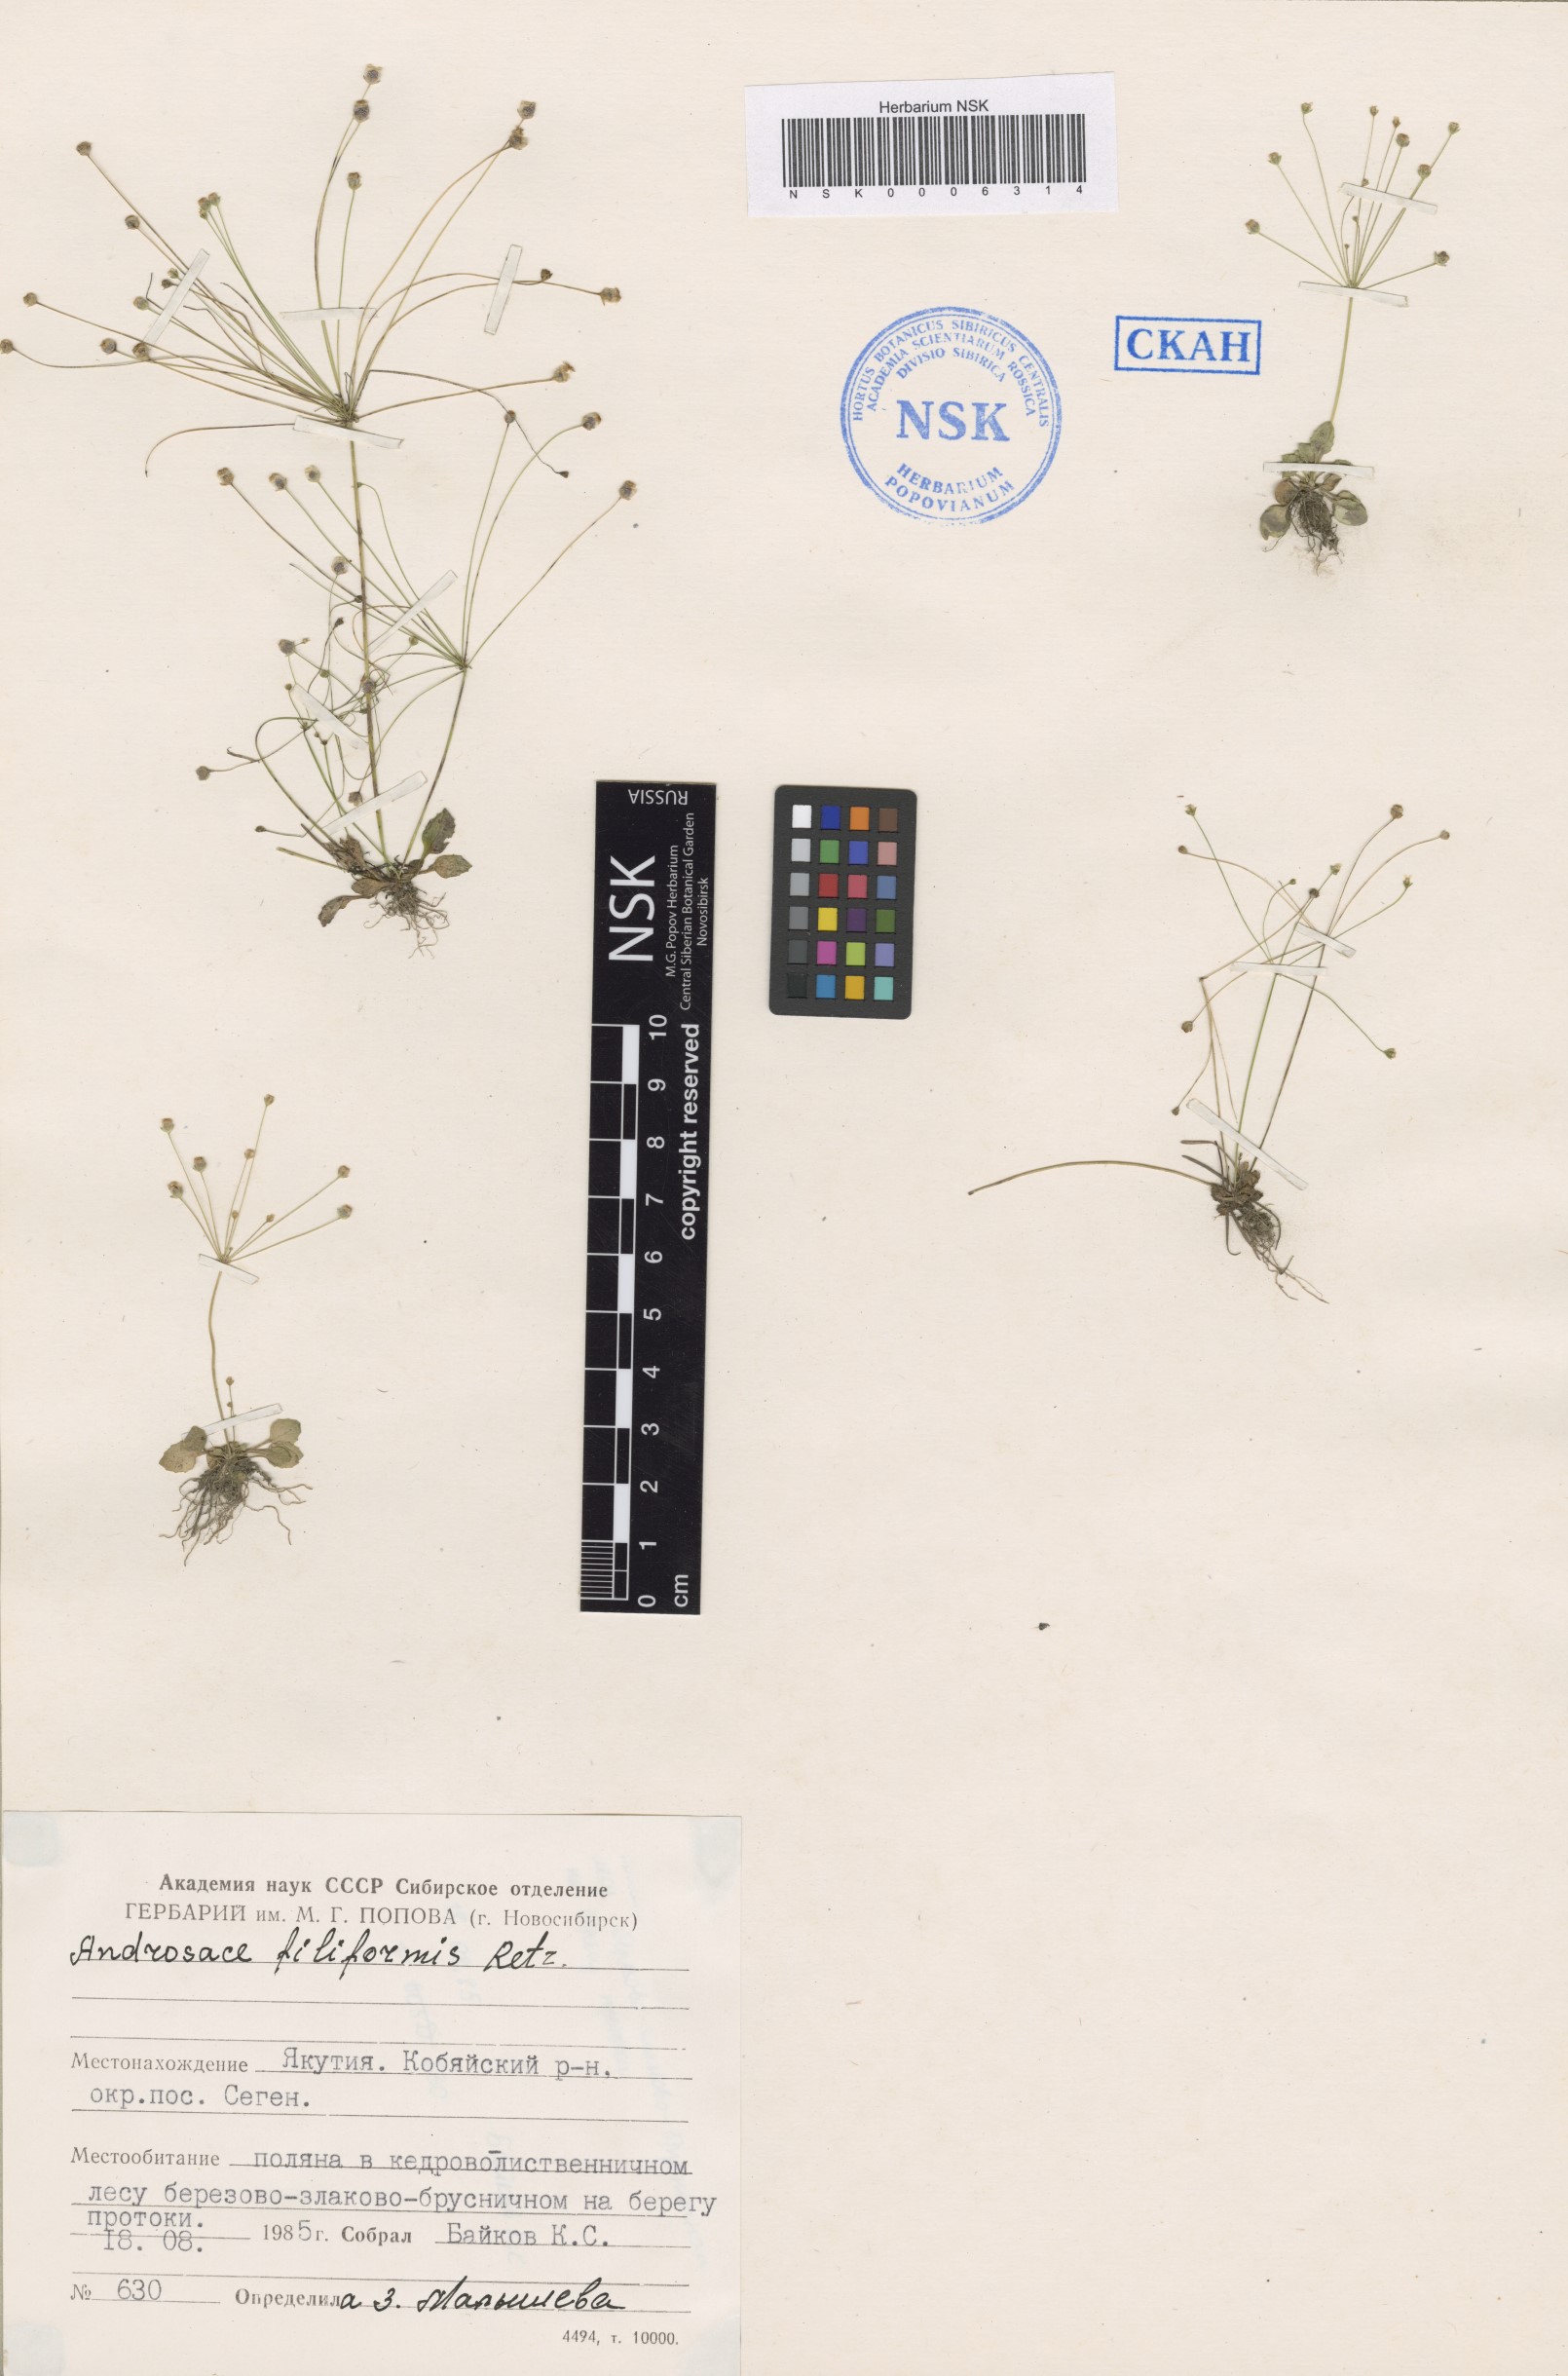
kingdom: Plantae
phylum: Tracheophyta
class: Magnoliopsida
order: Ericales
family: Primulaceae
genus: Androsace
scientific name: Androsace filiformis
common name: Filiform rock jasmine
